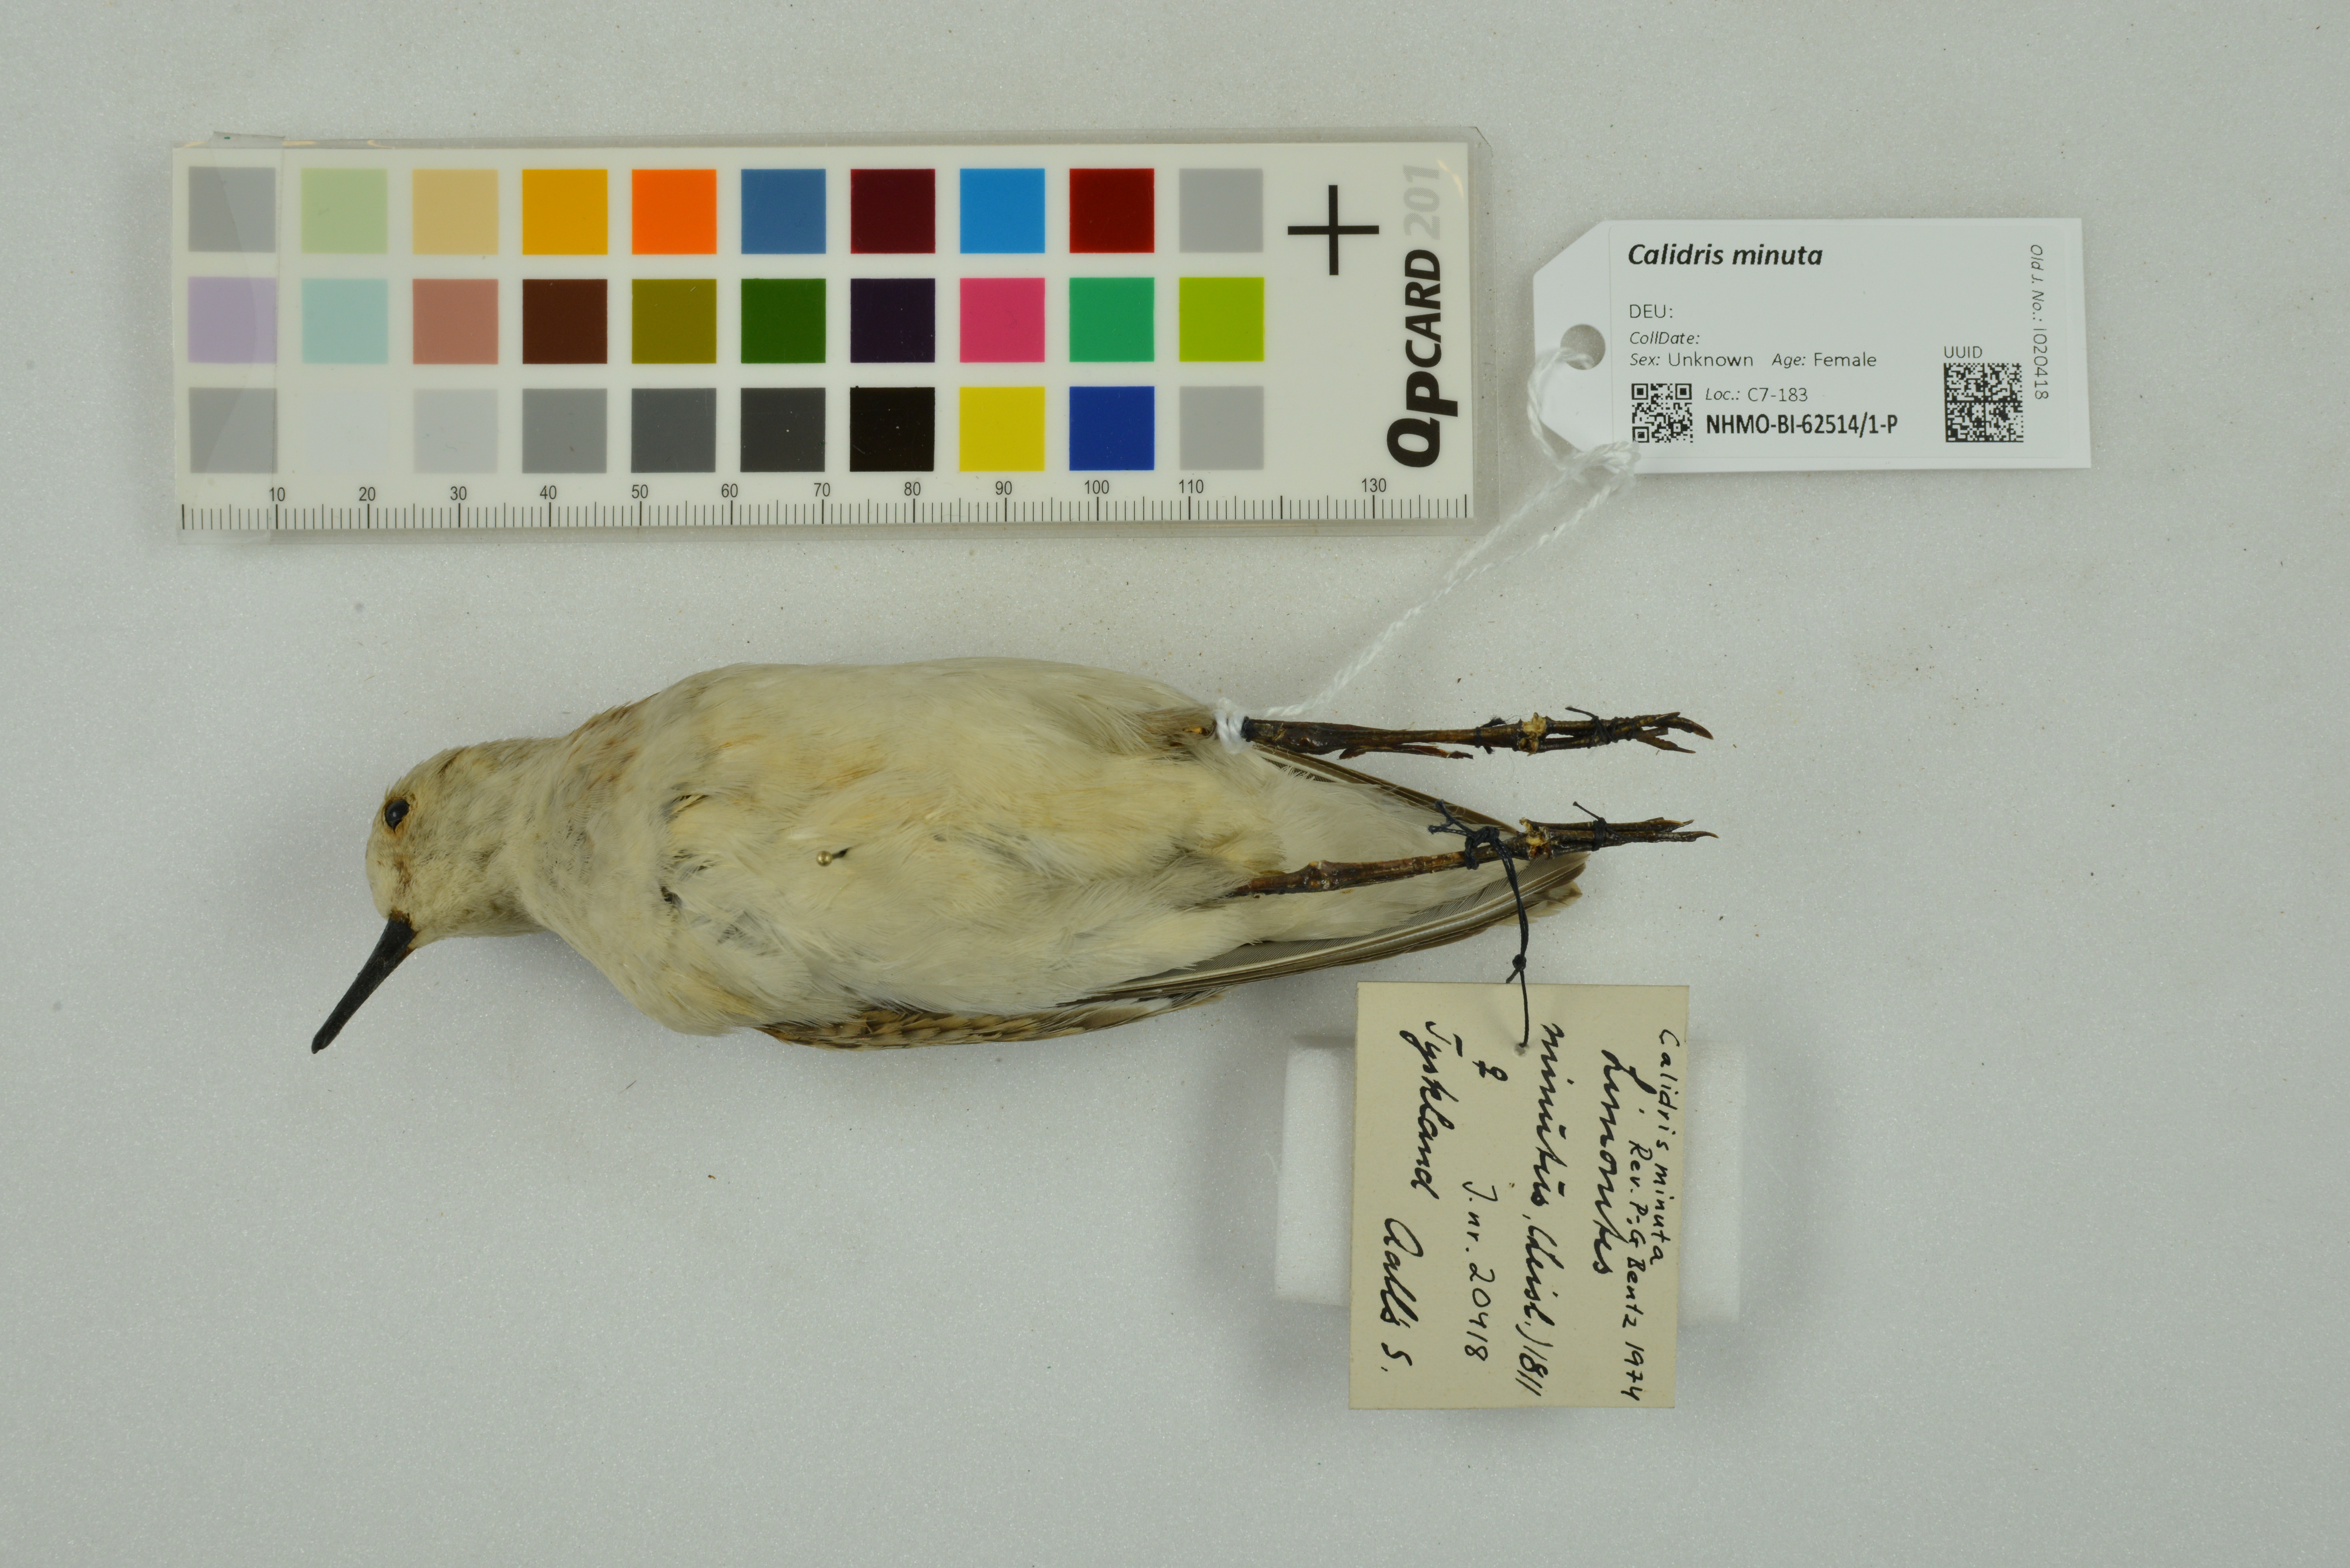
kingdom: Animalia
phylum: Chordata
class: Aves
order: Charadriiformes
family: Scolopacidae
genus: Calidris
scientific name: Calidris minuta
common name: Little stint
